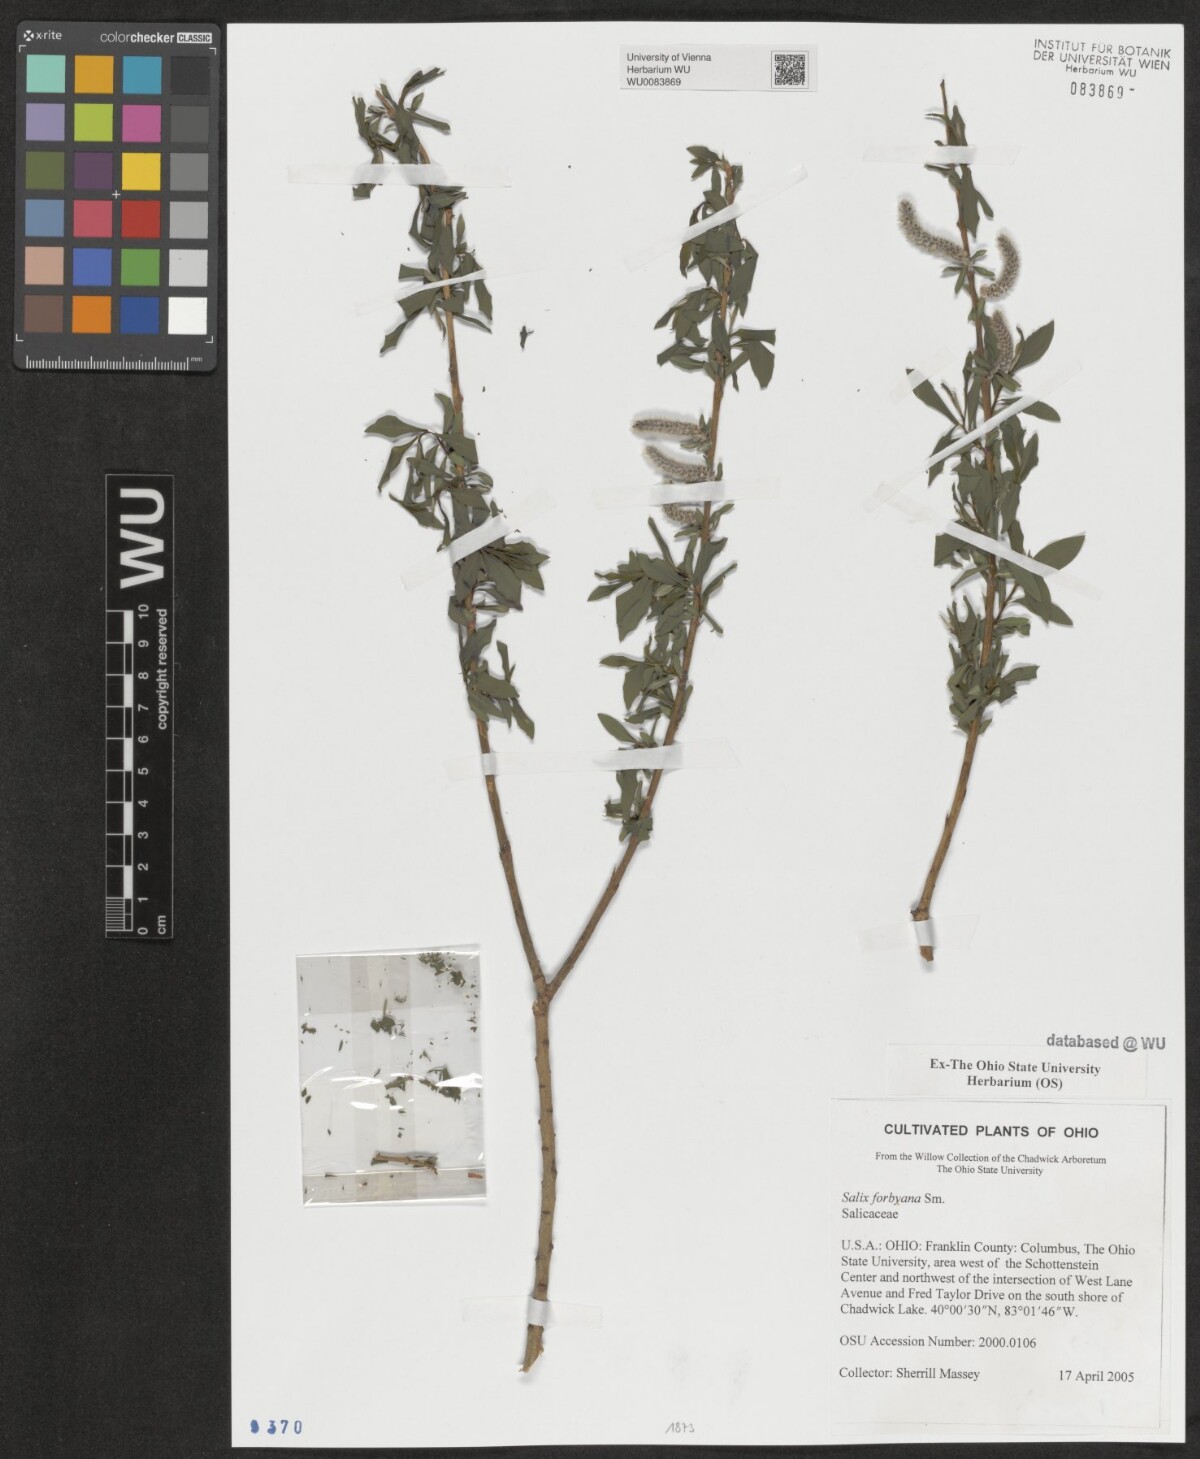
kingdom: Plantae
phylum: Tracheophyta
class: Magnoliopsida
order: Malpighiales
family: Salicaceae
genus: Salix
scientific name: Salix rubra
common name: Green-leaf willow
